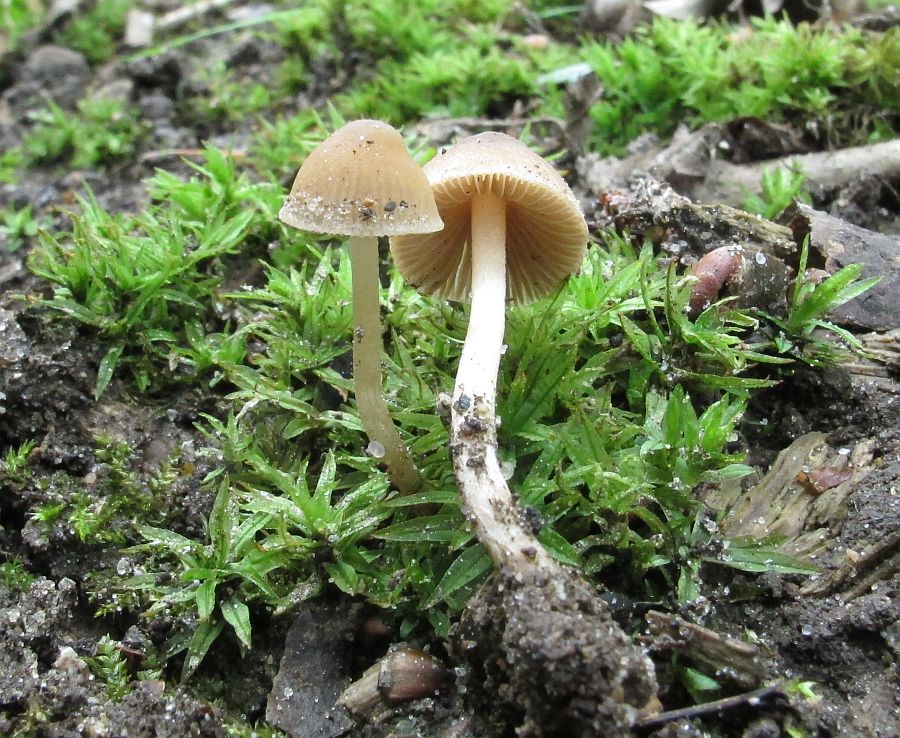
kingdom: Fungi
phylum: Basidiomycota
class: Agaricomycetes
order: Agaricales
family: Psathyrellaceae
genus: Psathyrella
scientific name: Psathyrella obtusata
